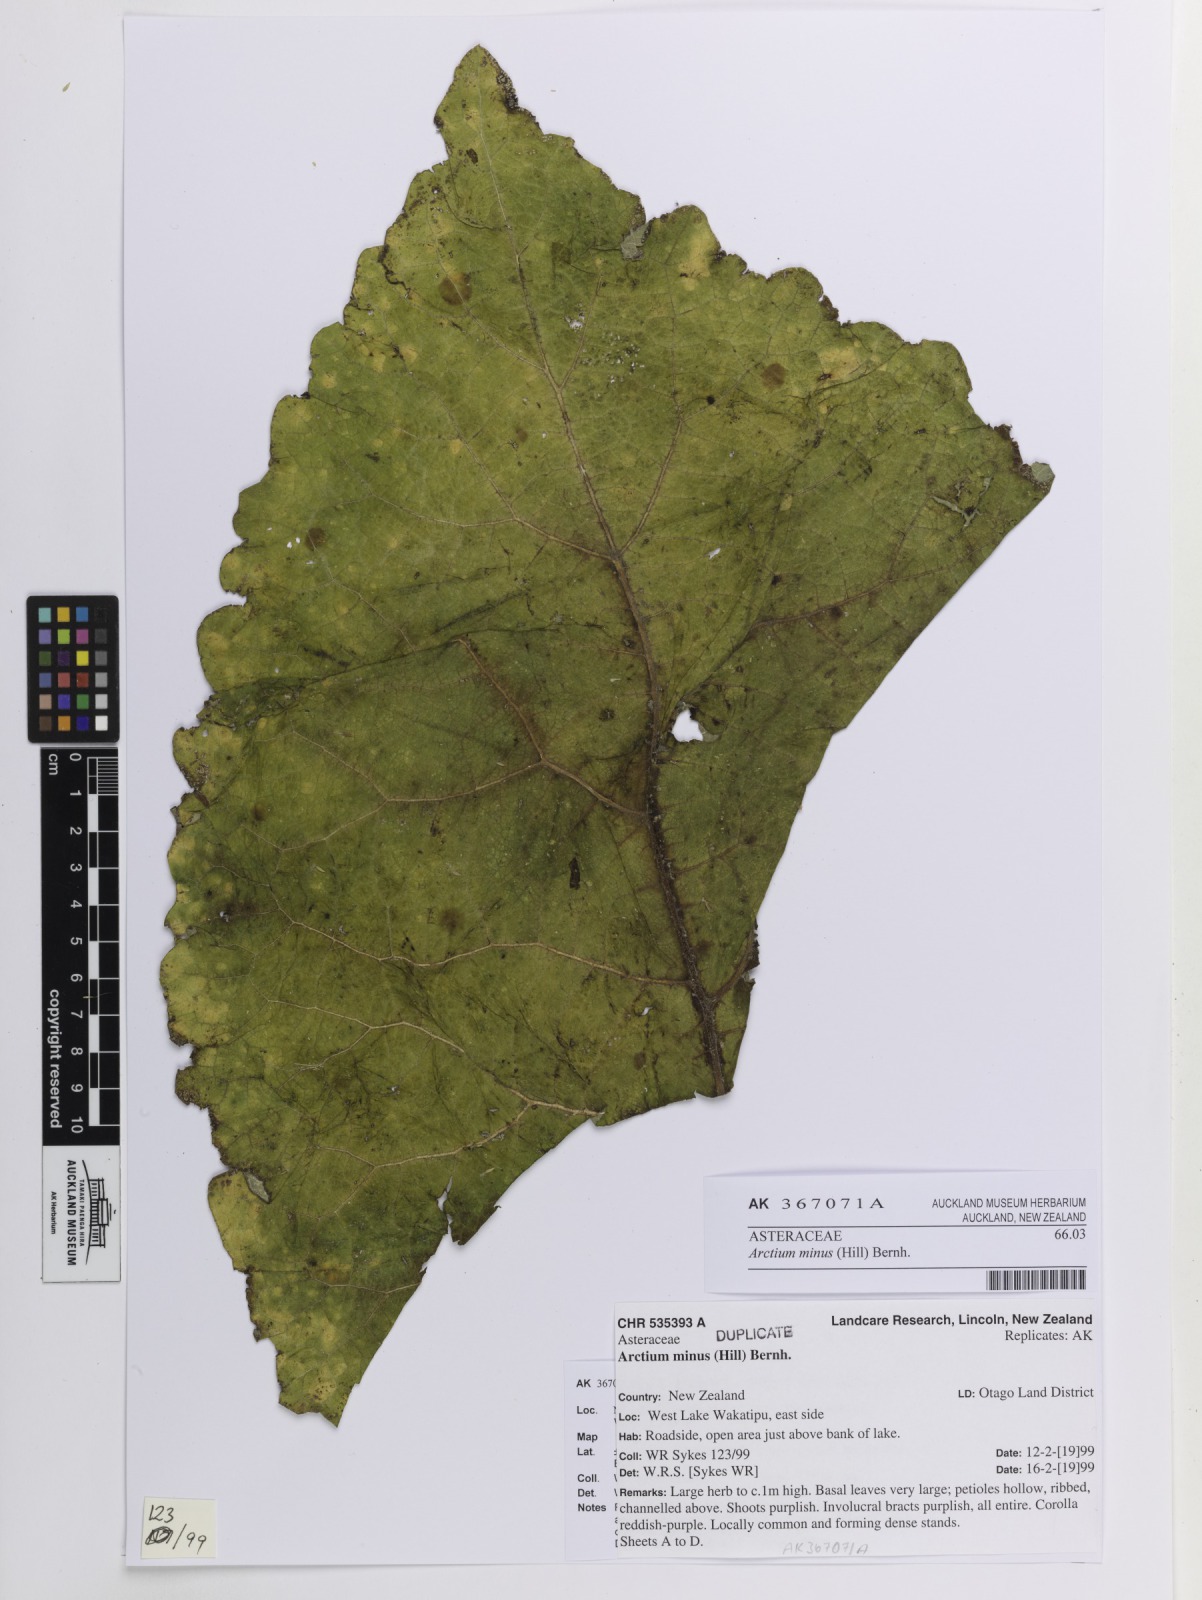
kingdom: Plantae
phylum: Tracheophyta
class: Magnoliopsida
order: Asterales
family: Asteraceae
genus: Arctium
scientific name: Arctium minus
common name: Lesser burdock
